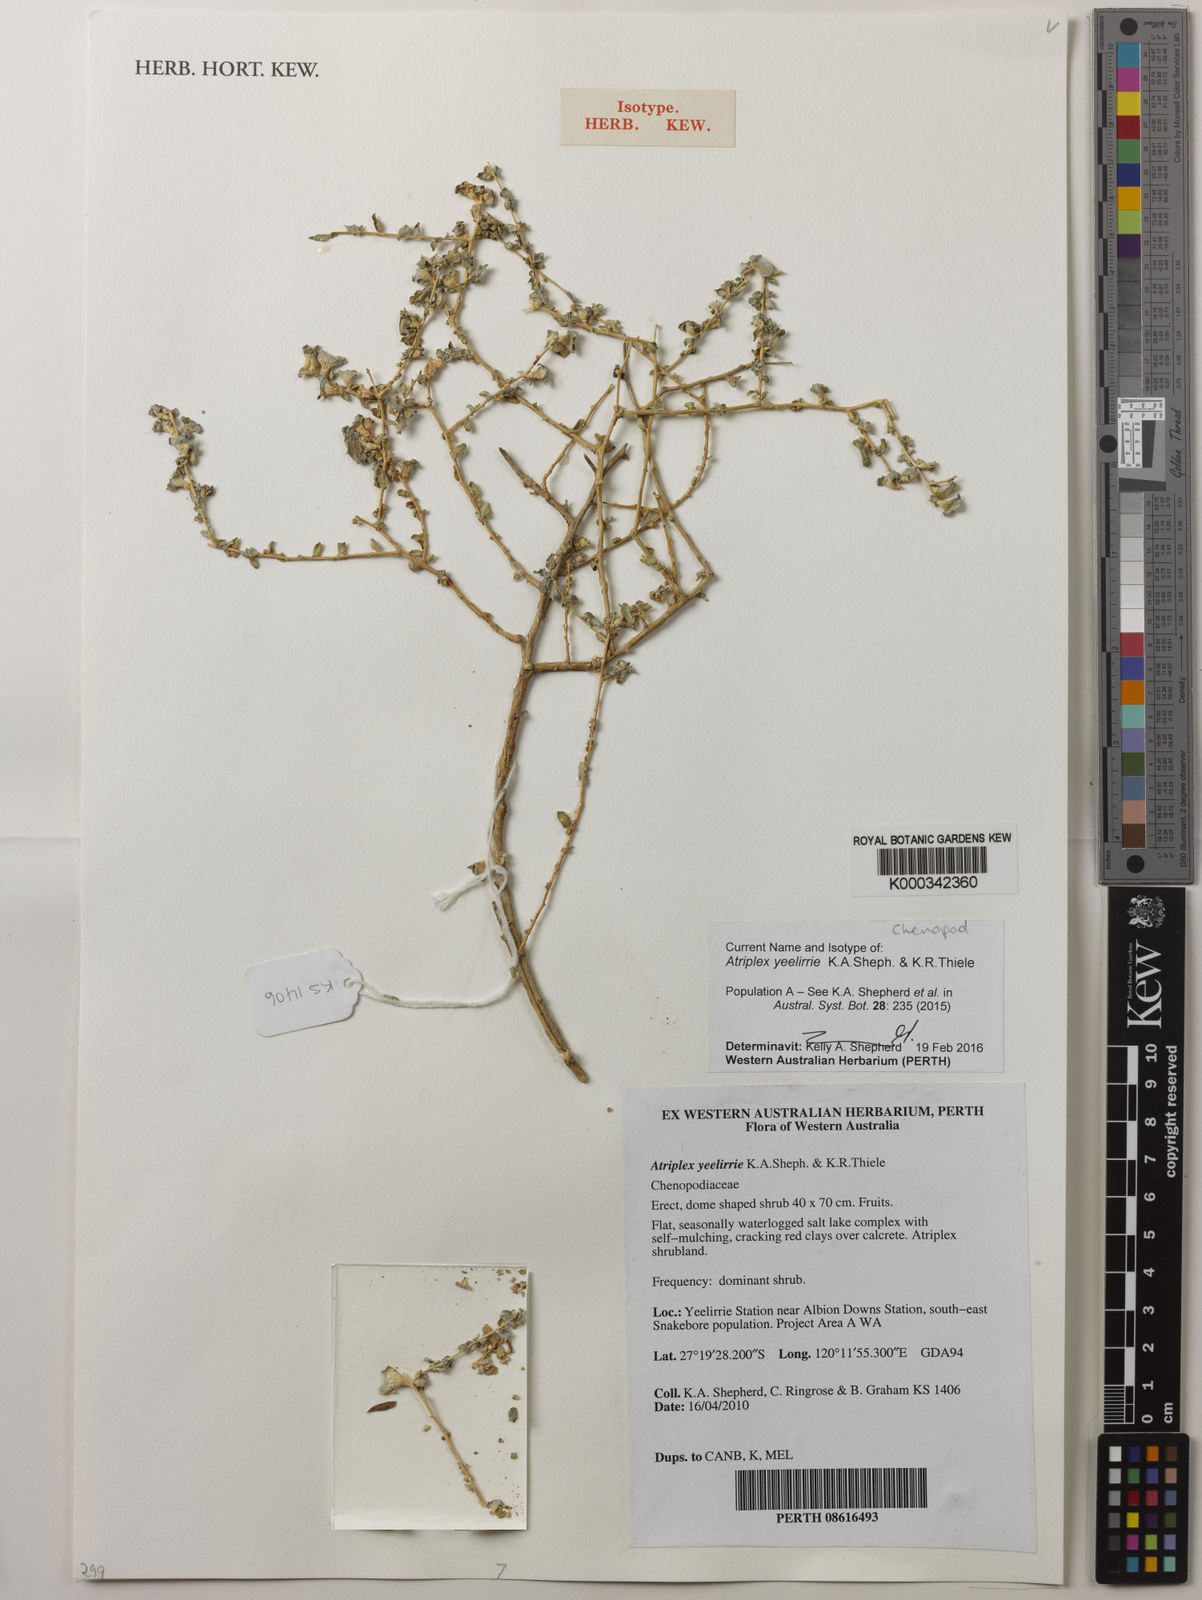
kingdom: Plantae
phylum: Tracheophyta
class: Magnoliopsida
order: Caryophyllales
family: Amaranthaceae
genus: Atriplex
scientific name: Atriplex yeelirrie
